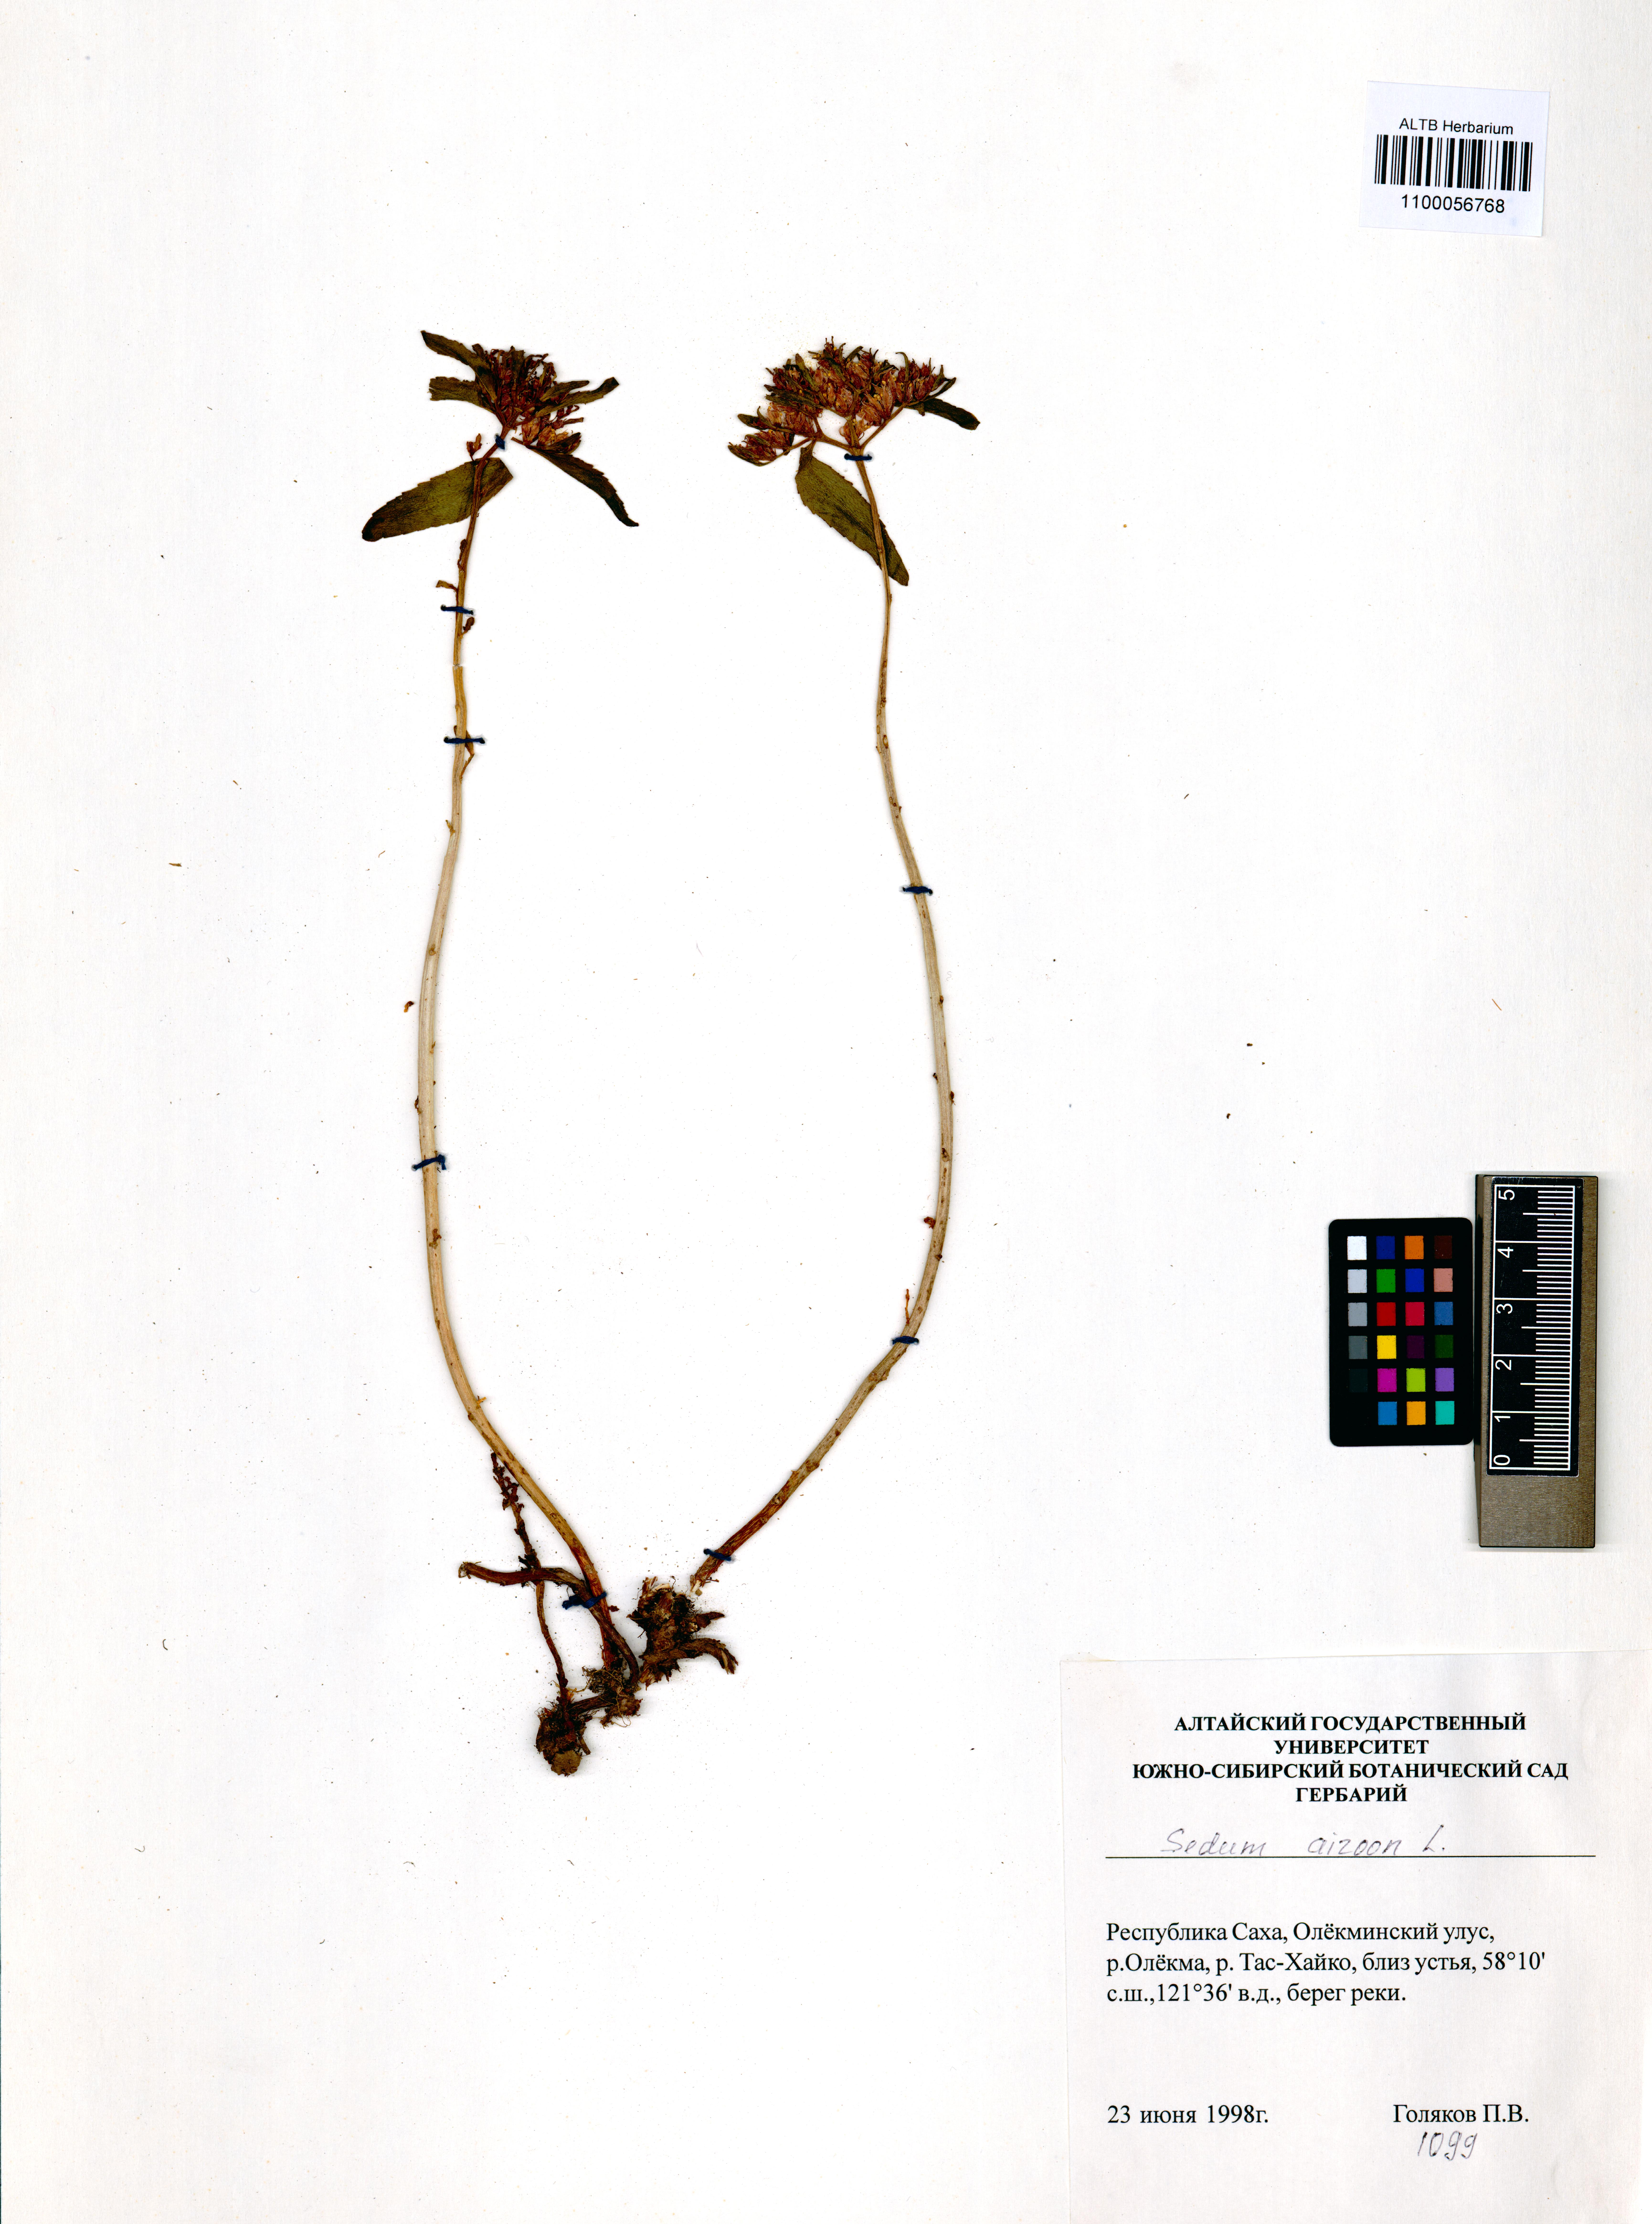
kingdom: Plantae
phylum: Tracheophyta
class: Magnoliopsida
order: Saxifragales
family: Crassulaceae
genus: Phedimus
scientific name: Phedimus aizoon
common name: Orpin aizoon
